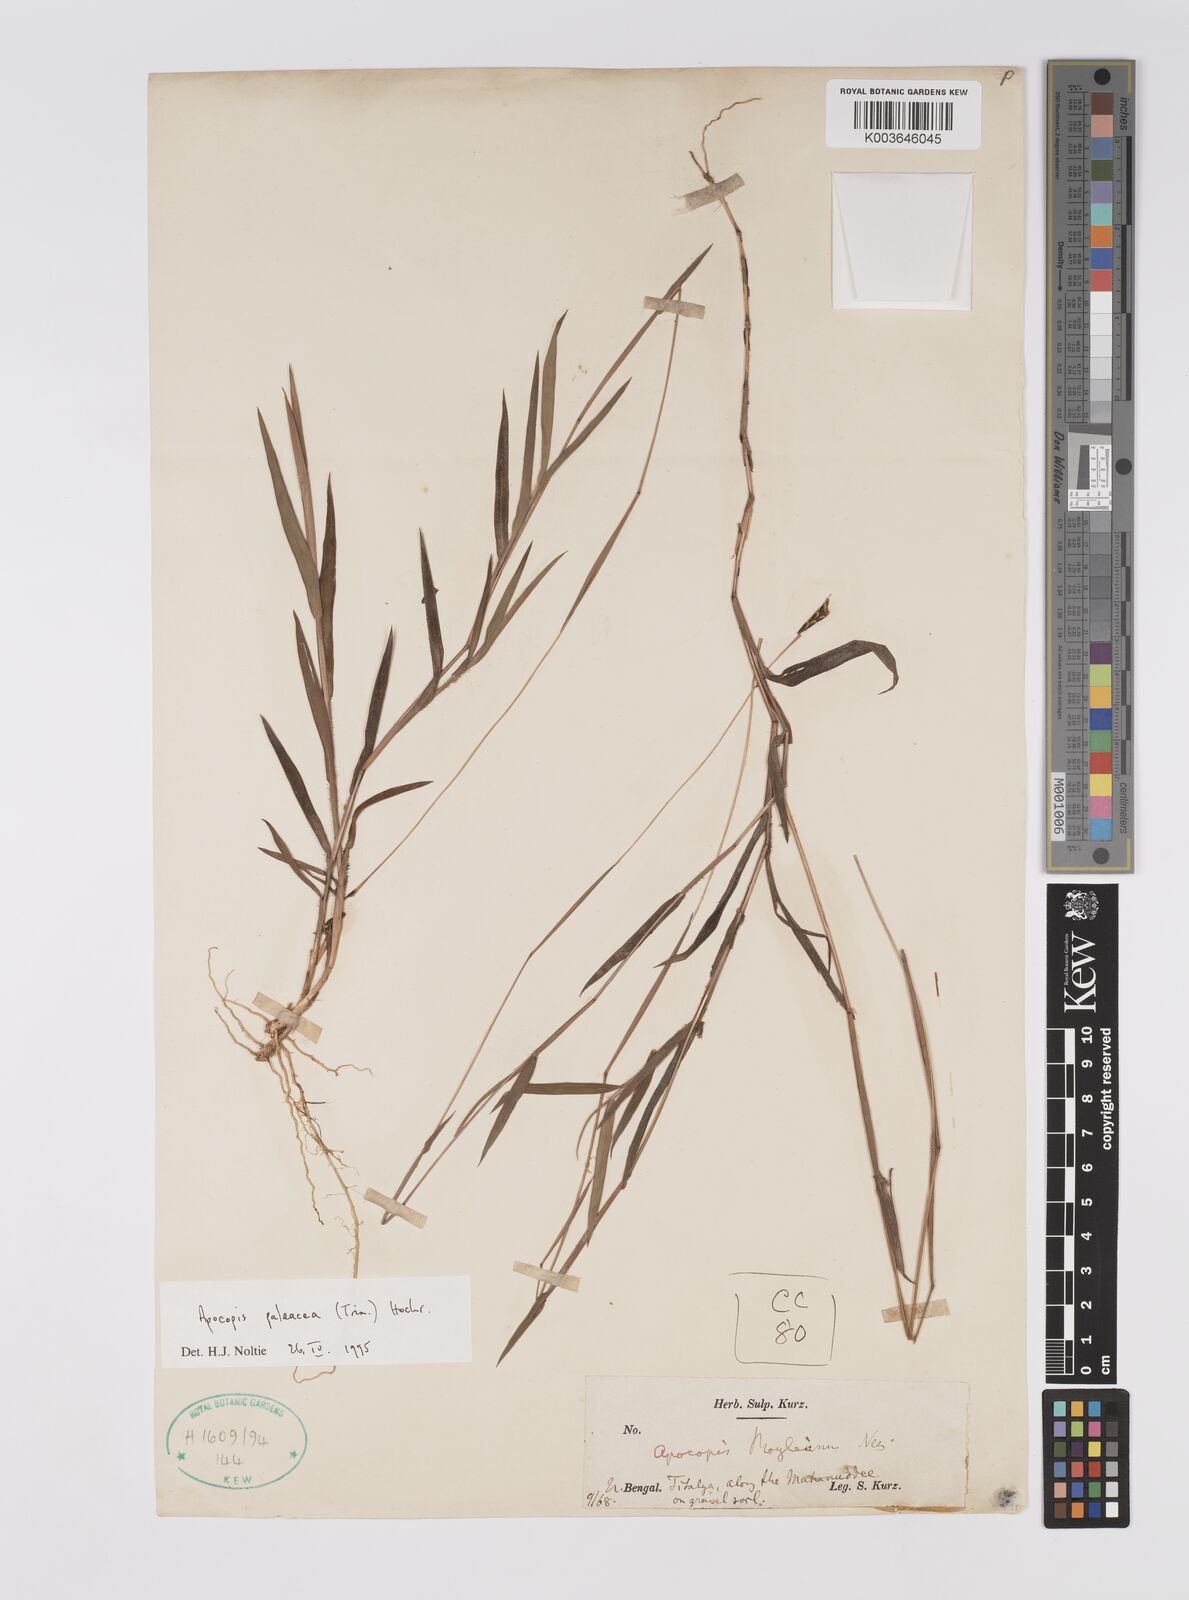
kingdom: Plantae
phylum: Tracheophyta
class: Liliopsida
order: Poales
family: Poaceae
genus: Apocopis
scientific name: Apocopis paleaceus
